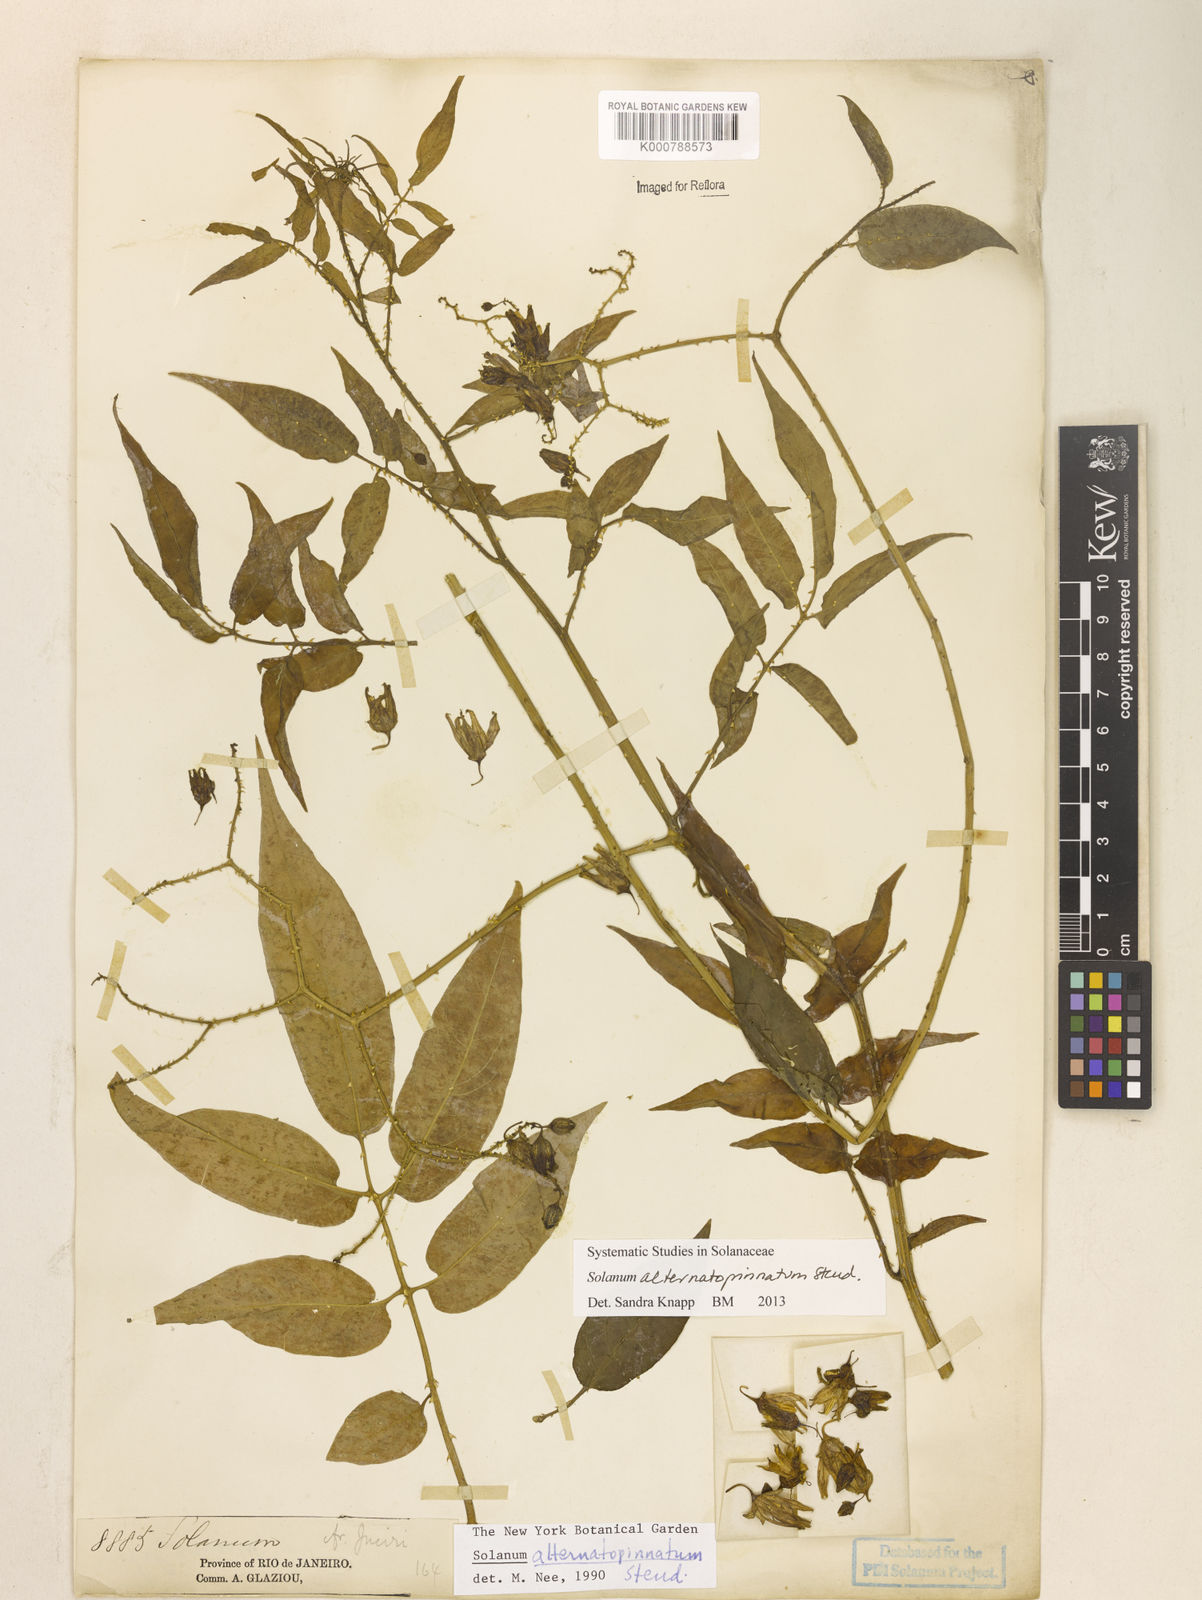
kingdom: Plantae
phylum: Tracheophyta
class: Magnoliopsida
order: Solanales
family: Solanaceae
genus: Solanum
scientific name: Solanum alternatopinnatum
